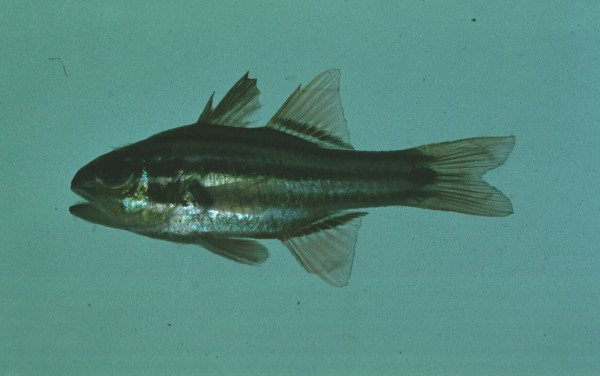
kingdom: Animalia
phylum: Chordata
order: Perciformes
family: Apogonidae
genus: Ostorhinchus
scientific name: Ostorhinchus cookii
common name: Cook's cardinalfish
